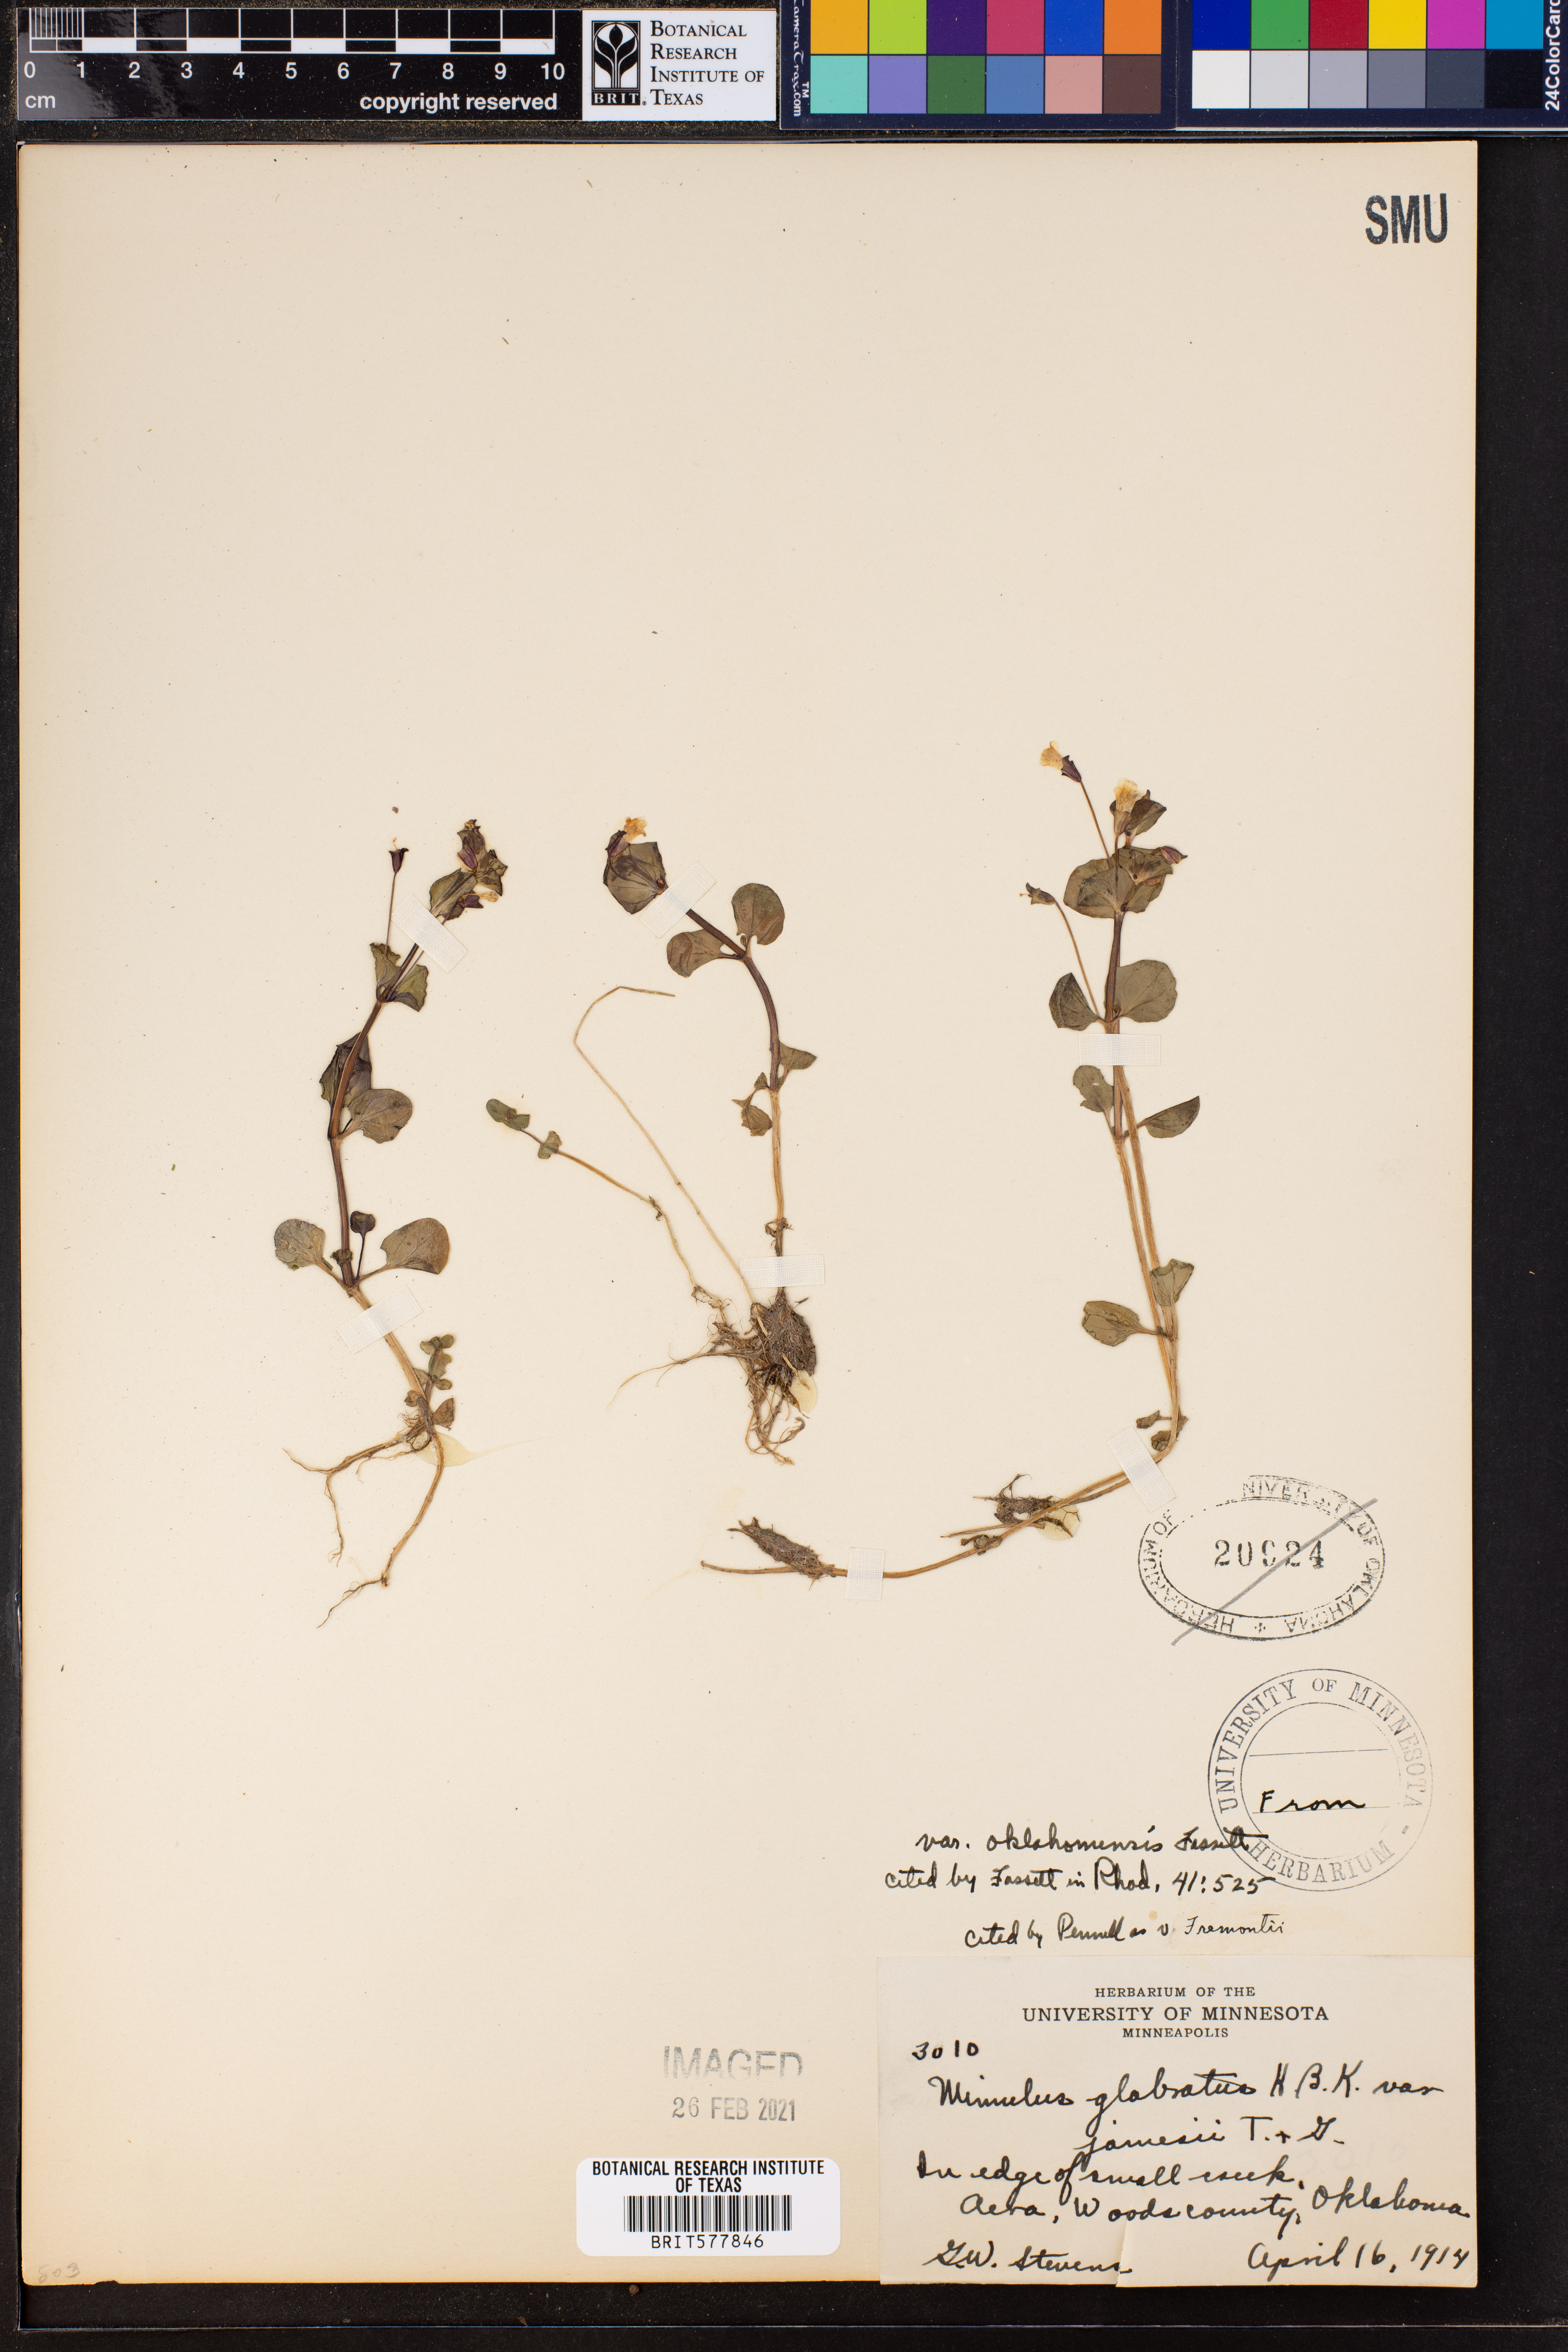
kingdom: Plantae
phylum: Tracheophyta
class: Magnoliopsida
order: Lamiales
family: Phrymaceae
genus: Erythranthe
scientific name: Erythranthe geyeri
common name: Geyer's monkeyflower
